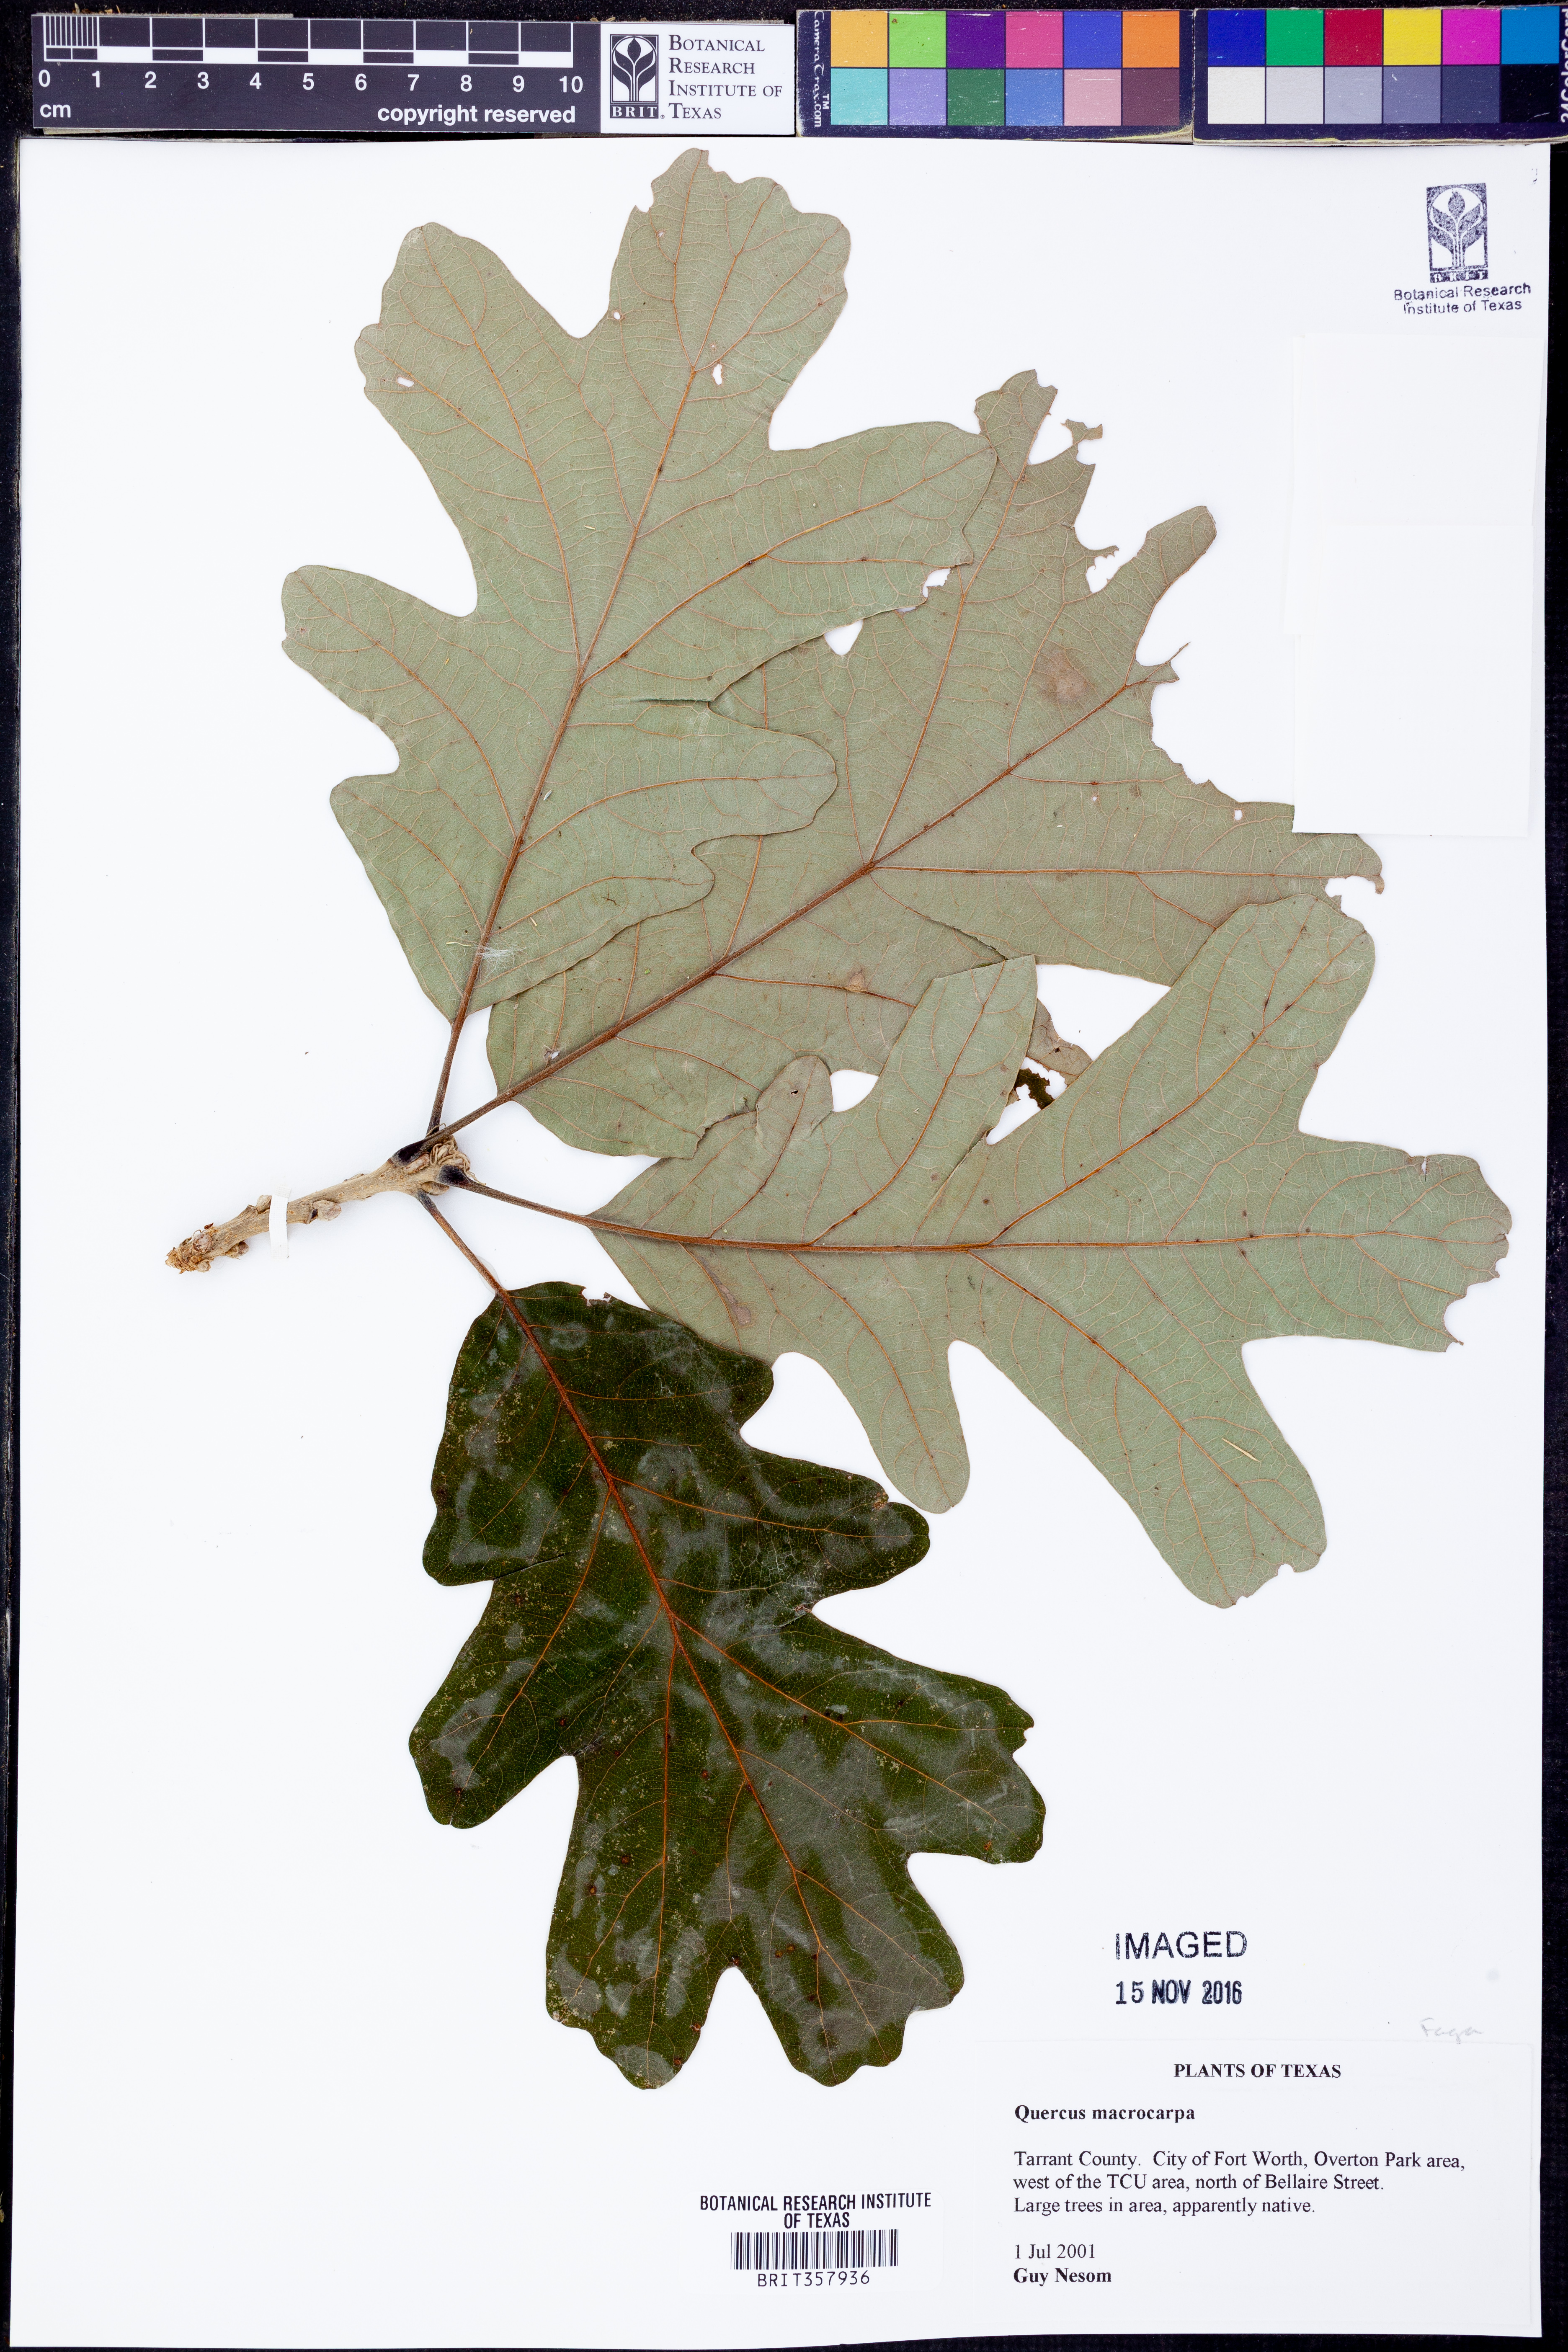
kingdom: Plantae
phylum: Tracheophyta
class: Magnoliopsida
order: Fagales
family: Fagaceae
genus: Quercus
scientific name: Quercus macrocarpa
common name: Bur oak
